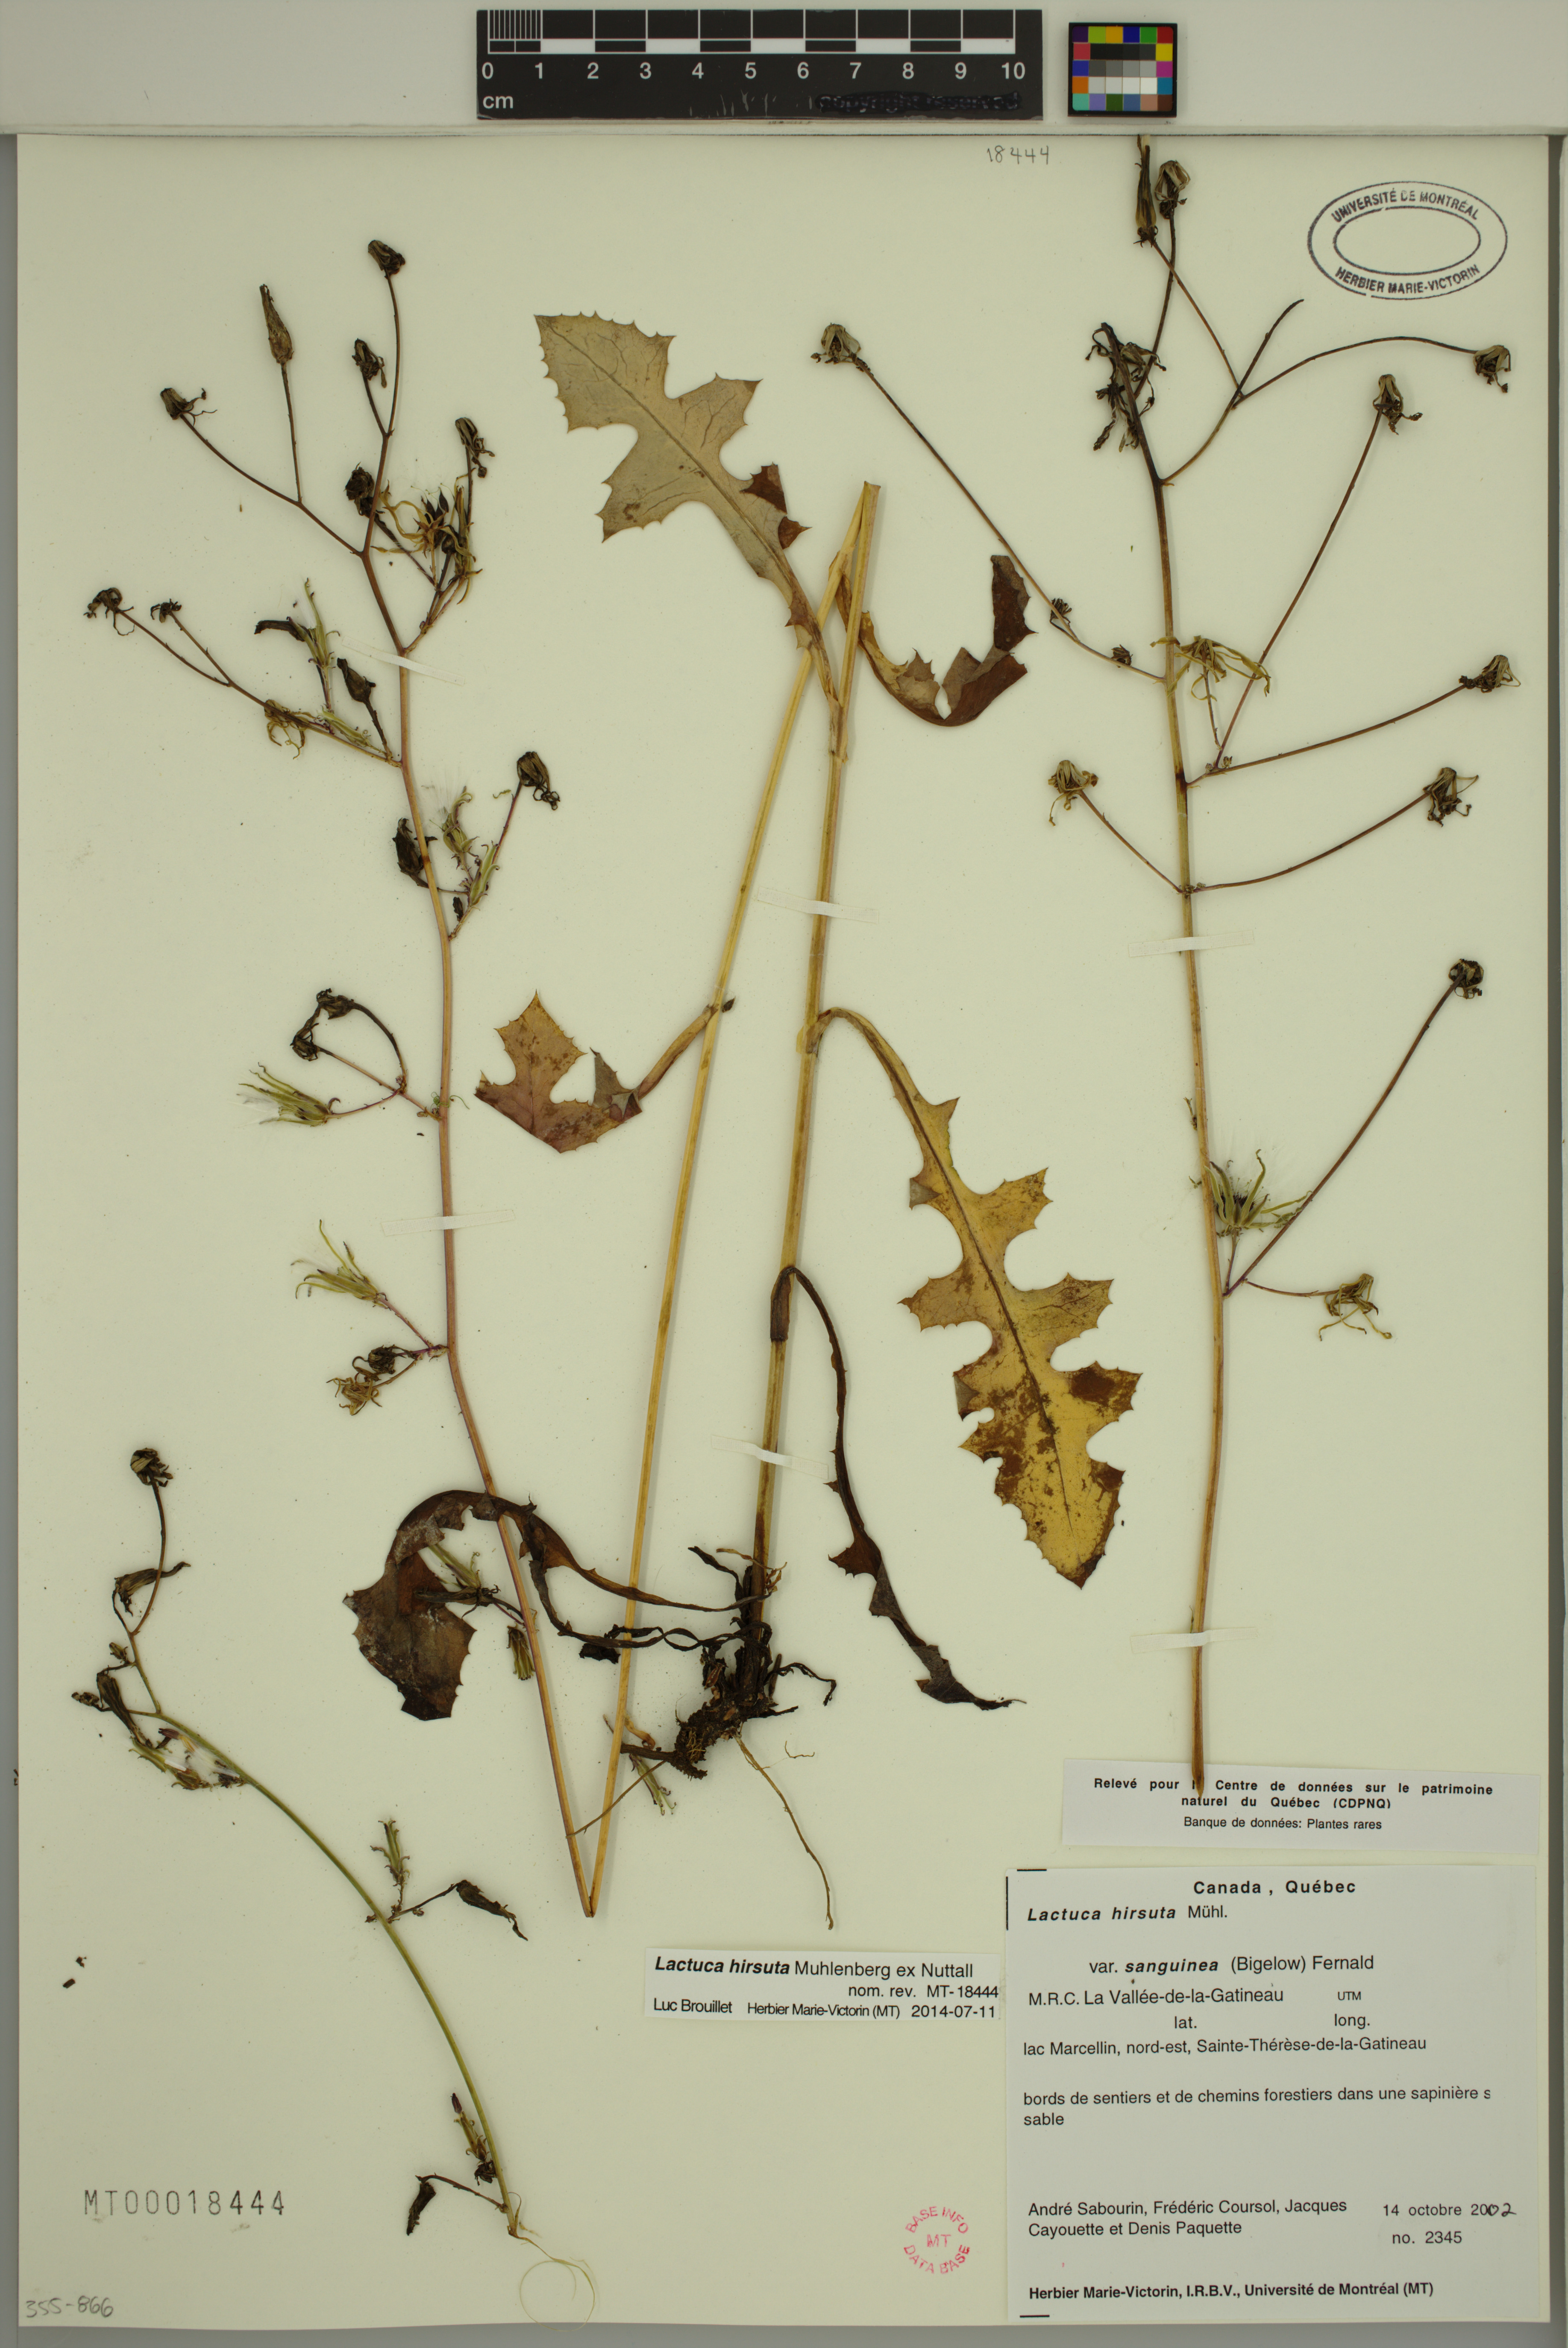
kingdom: Plantae
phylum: Tracheophyta
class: Magnoliopsida
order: Asterales
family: Asteraceae
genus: Lactuca
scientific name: Lactuca hirsuta
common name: Hairy lettuce
